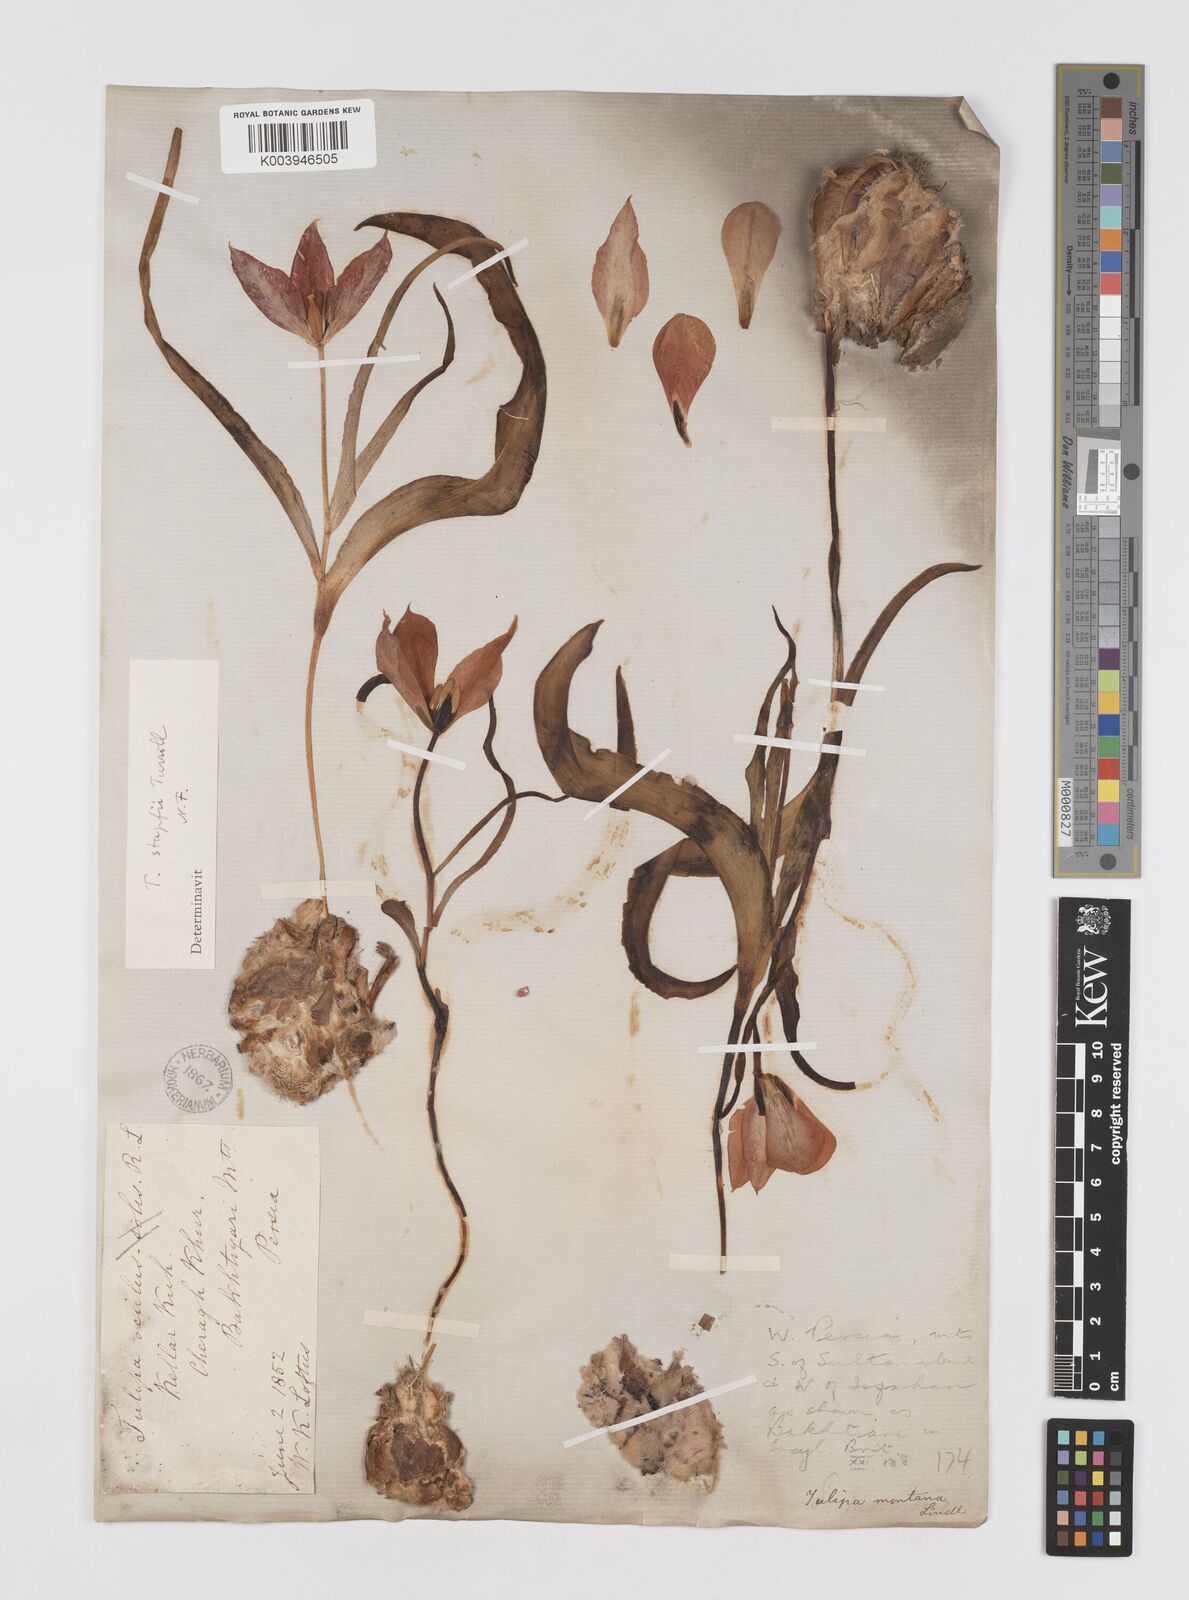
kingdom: Plantae
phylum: Tracheophyta
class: Liliopsida
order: Liliales
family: Liliaceae
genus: Tulipa
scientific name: Tulipa systola
